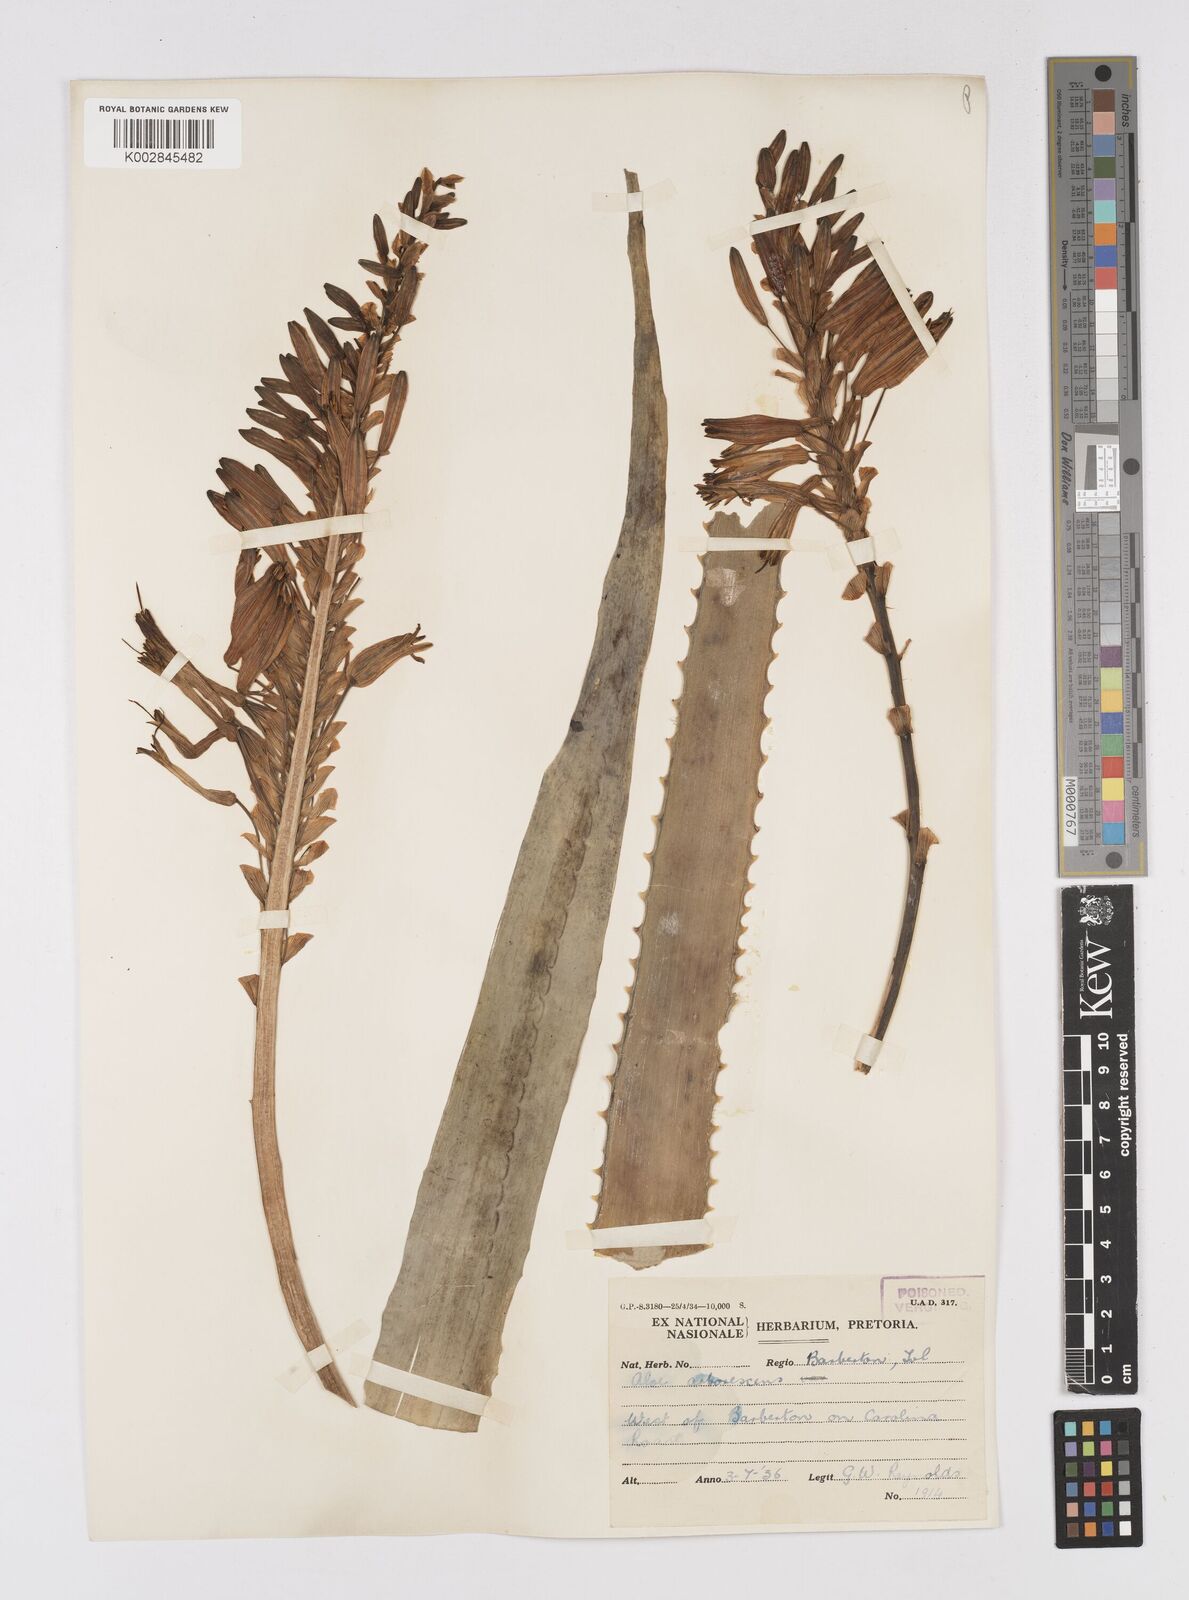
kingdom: Plantae
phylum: Tracheophyta
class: Liliopsida
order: Asparagales
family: Asphodelaceae
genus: Aloe
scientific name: Aloe arborescens
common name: Candelabra aloe
